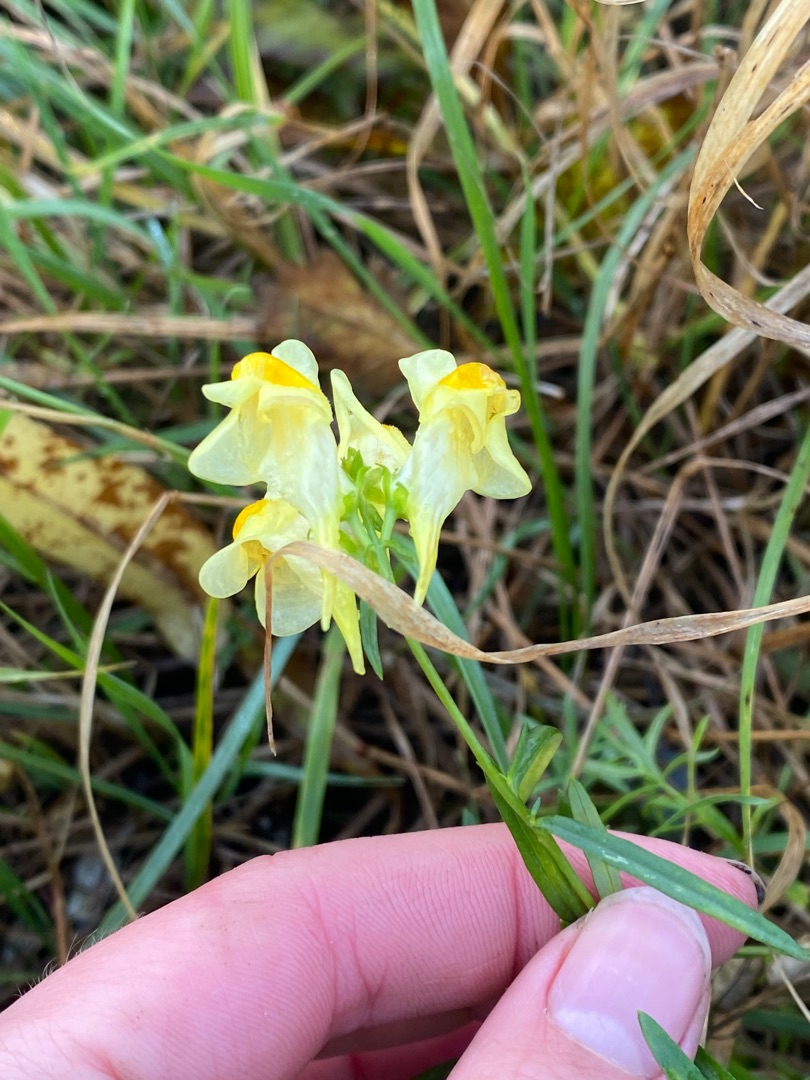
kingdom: Plantae
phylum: Tracheophyta
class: Magnoliopsida
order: Lamiales
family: Plantaginaceae
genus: Linaria
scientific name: Linaria vulgaris
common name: Almindelig torskemund
